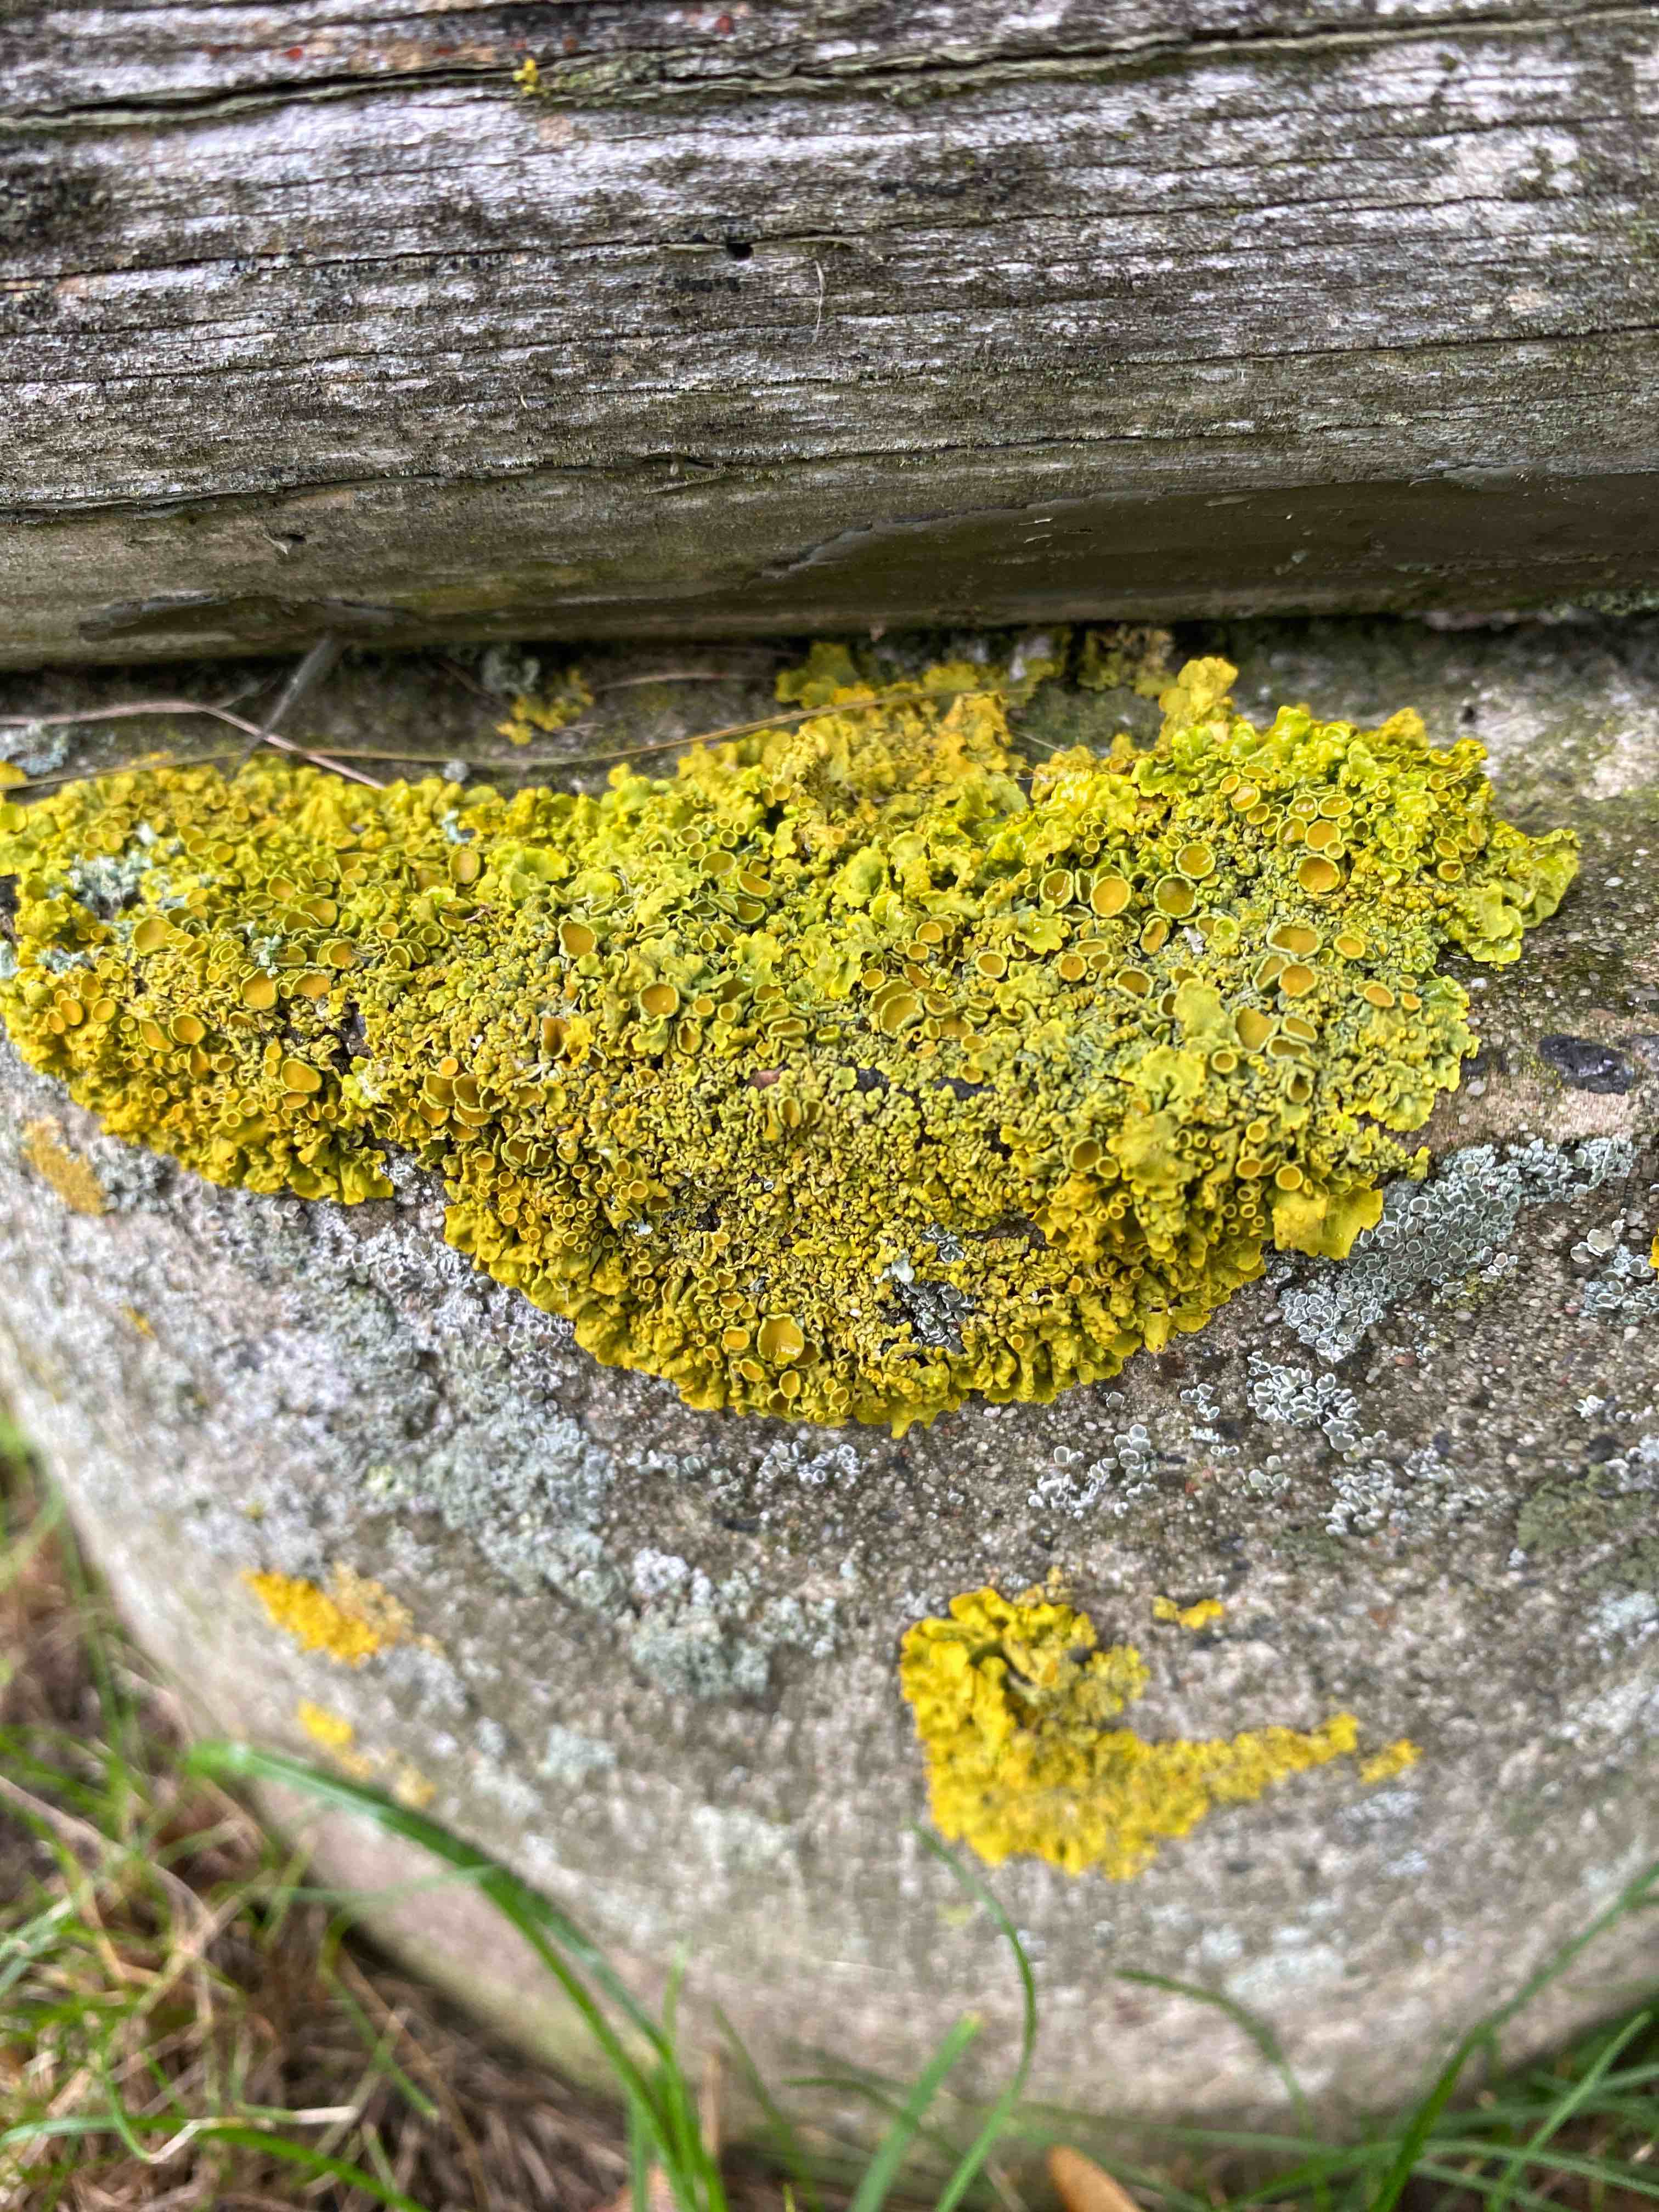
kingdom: Fungi
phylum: Ascomycota
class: Lecanoromycetes
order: Teloschistales
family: Teloschistaceae
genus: Xanthoria
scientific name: Xanthoria parietina
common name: almindelig væggelav
